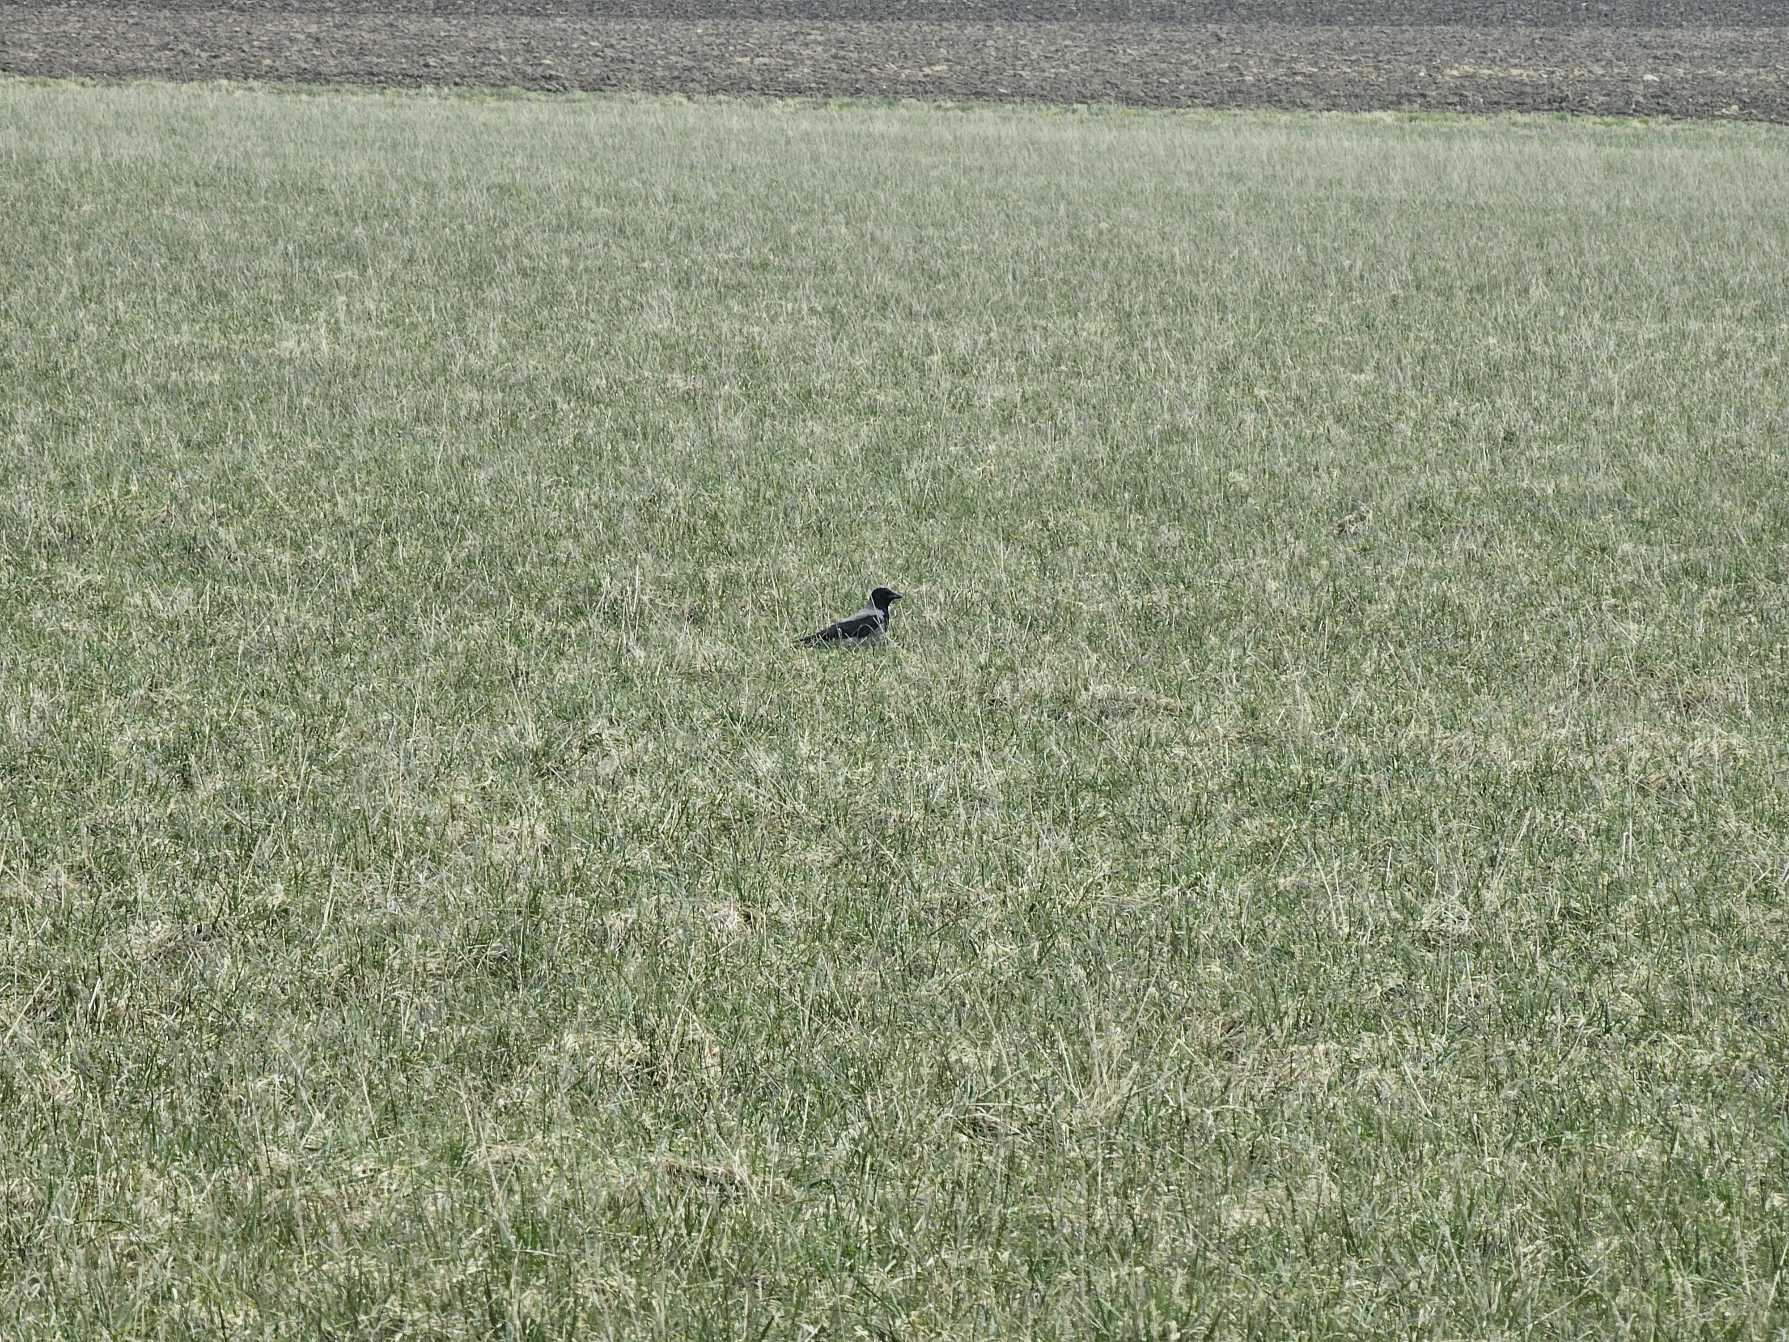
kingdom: Animalia
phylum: Chordata
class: Aves
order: Gruiformes
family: Gruidae
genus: Grus
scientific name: Grus grus
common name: Trane
